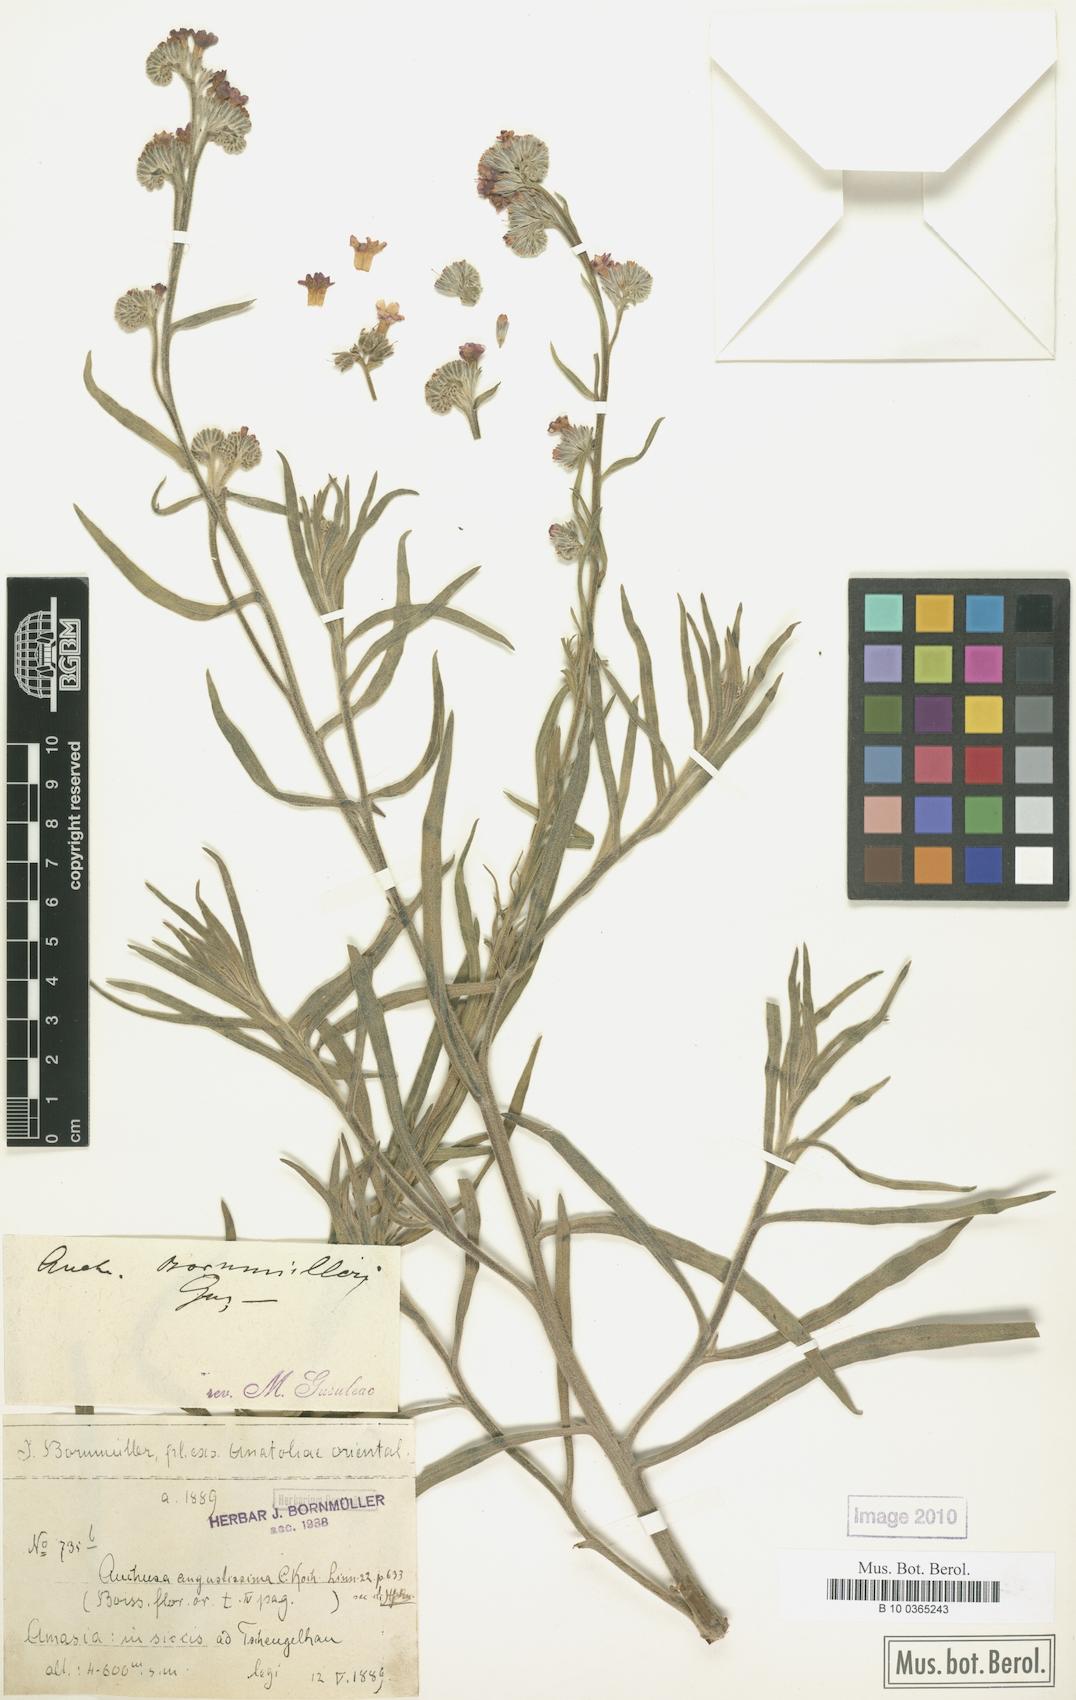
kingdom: Plantae
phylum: Tracheophyta
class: Magnoliopsida
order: Boraginales
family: Boraginaceae
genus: Anchusa
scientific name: Anchusa leptophylla
